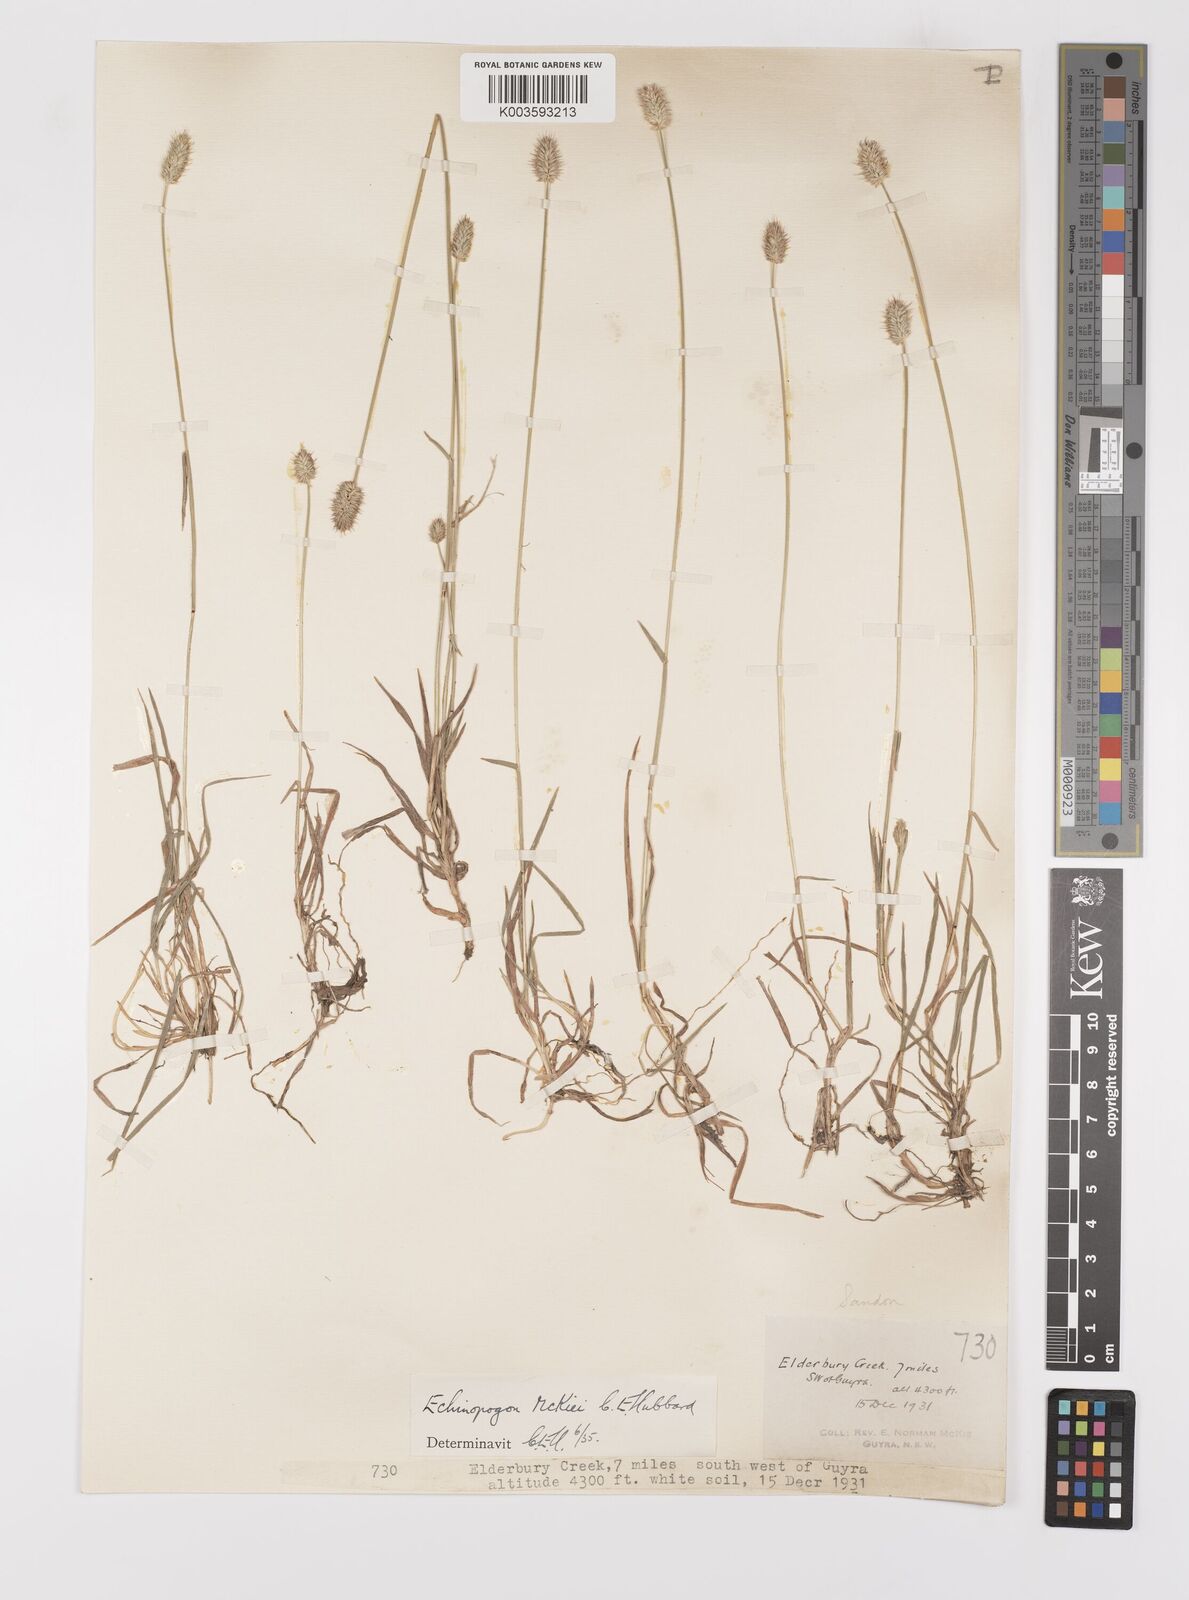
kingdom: Plantae
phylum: Tracheophyta
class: Liliopsida
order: Poales
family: Poaceae
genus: Echinopogon
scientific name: Echinopogon mckiei
